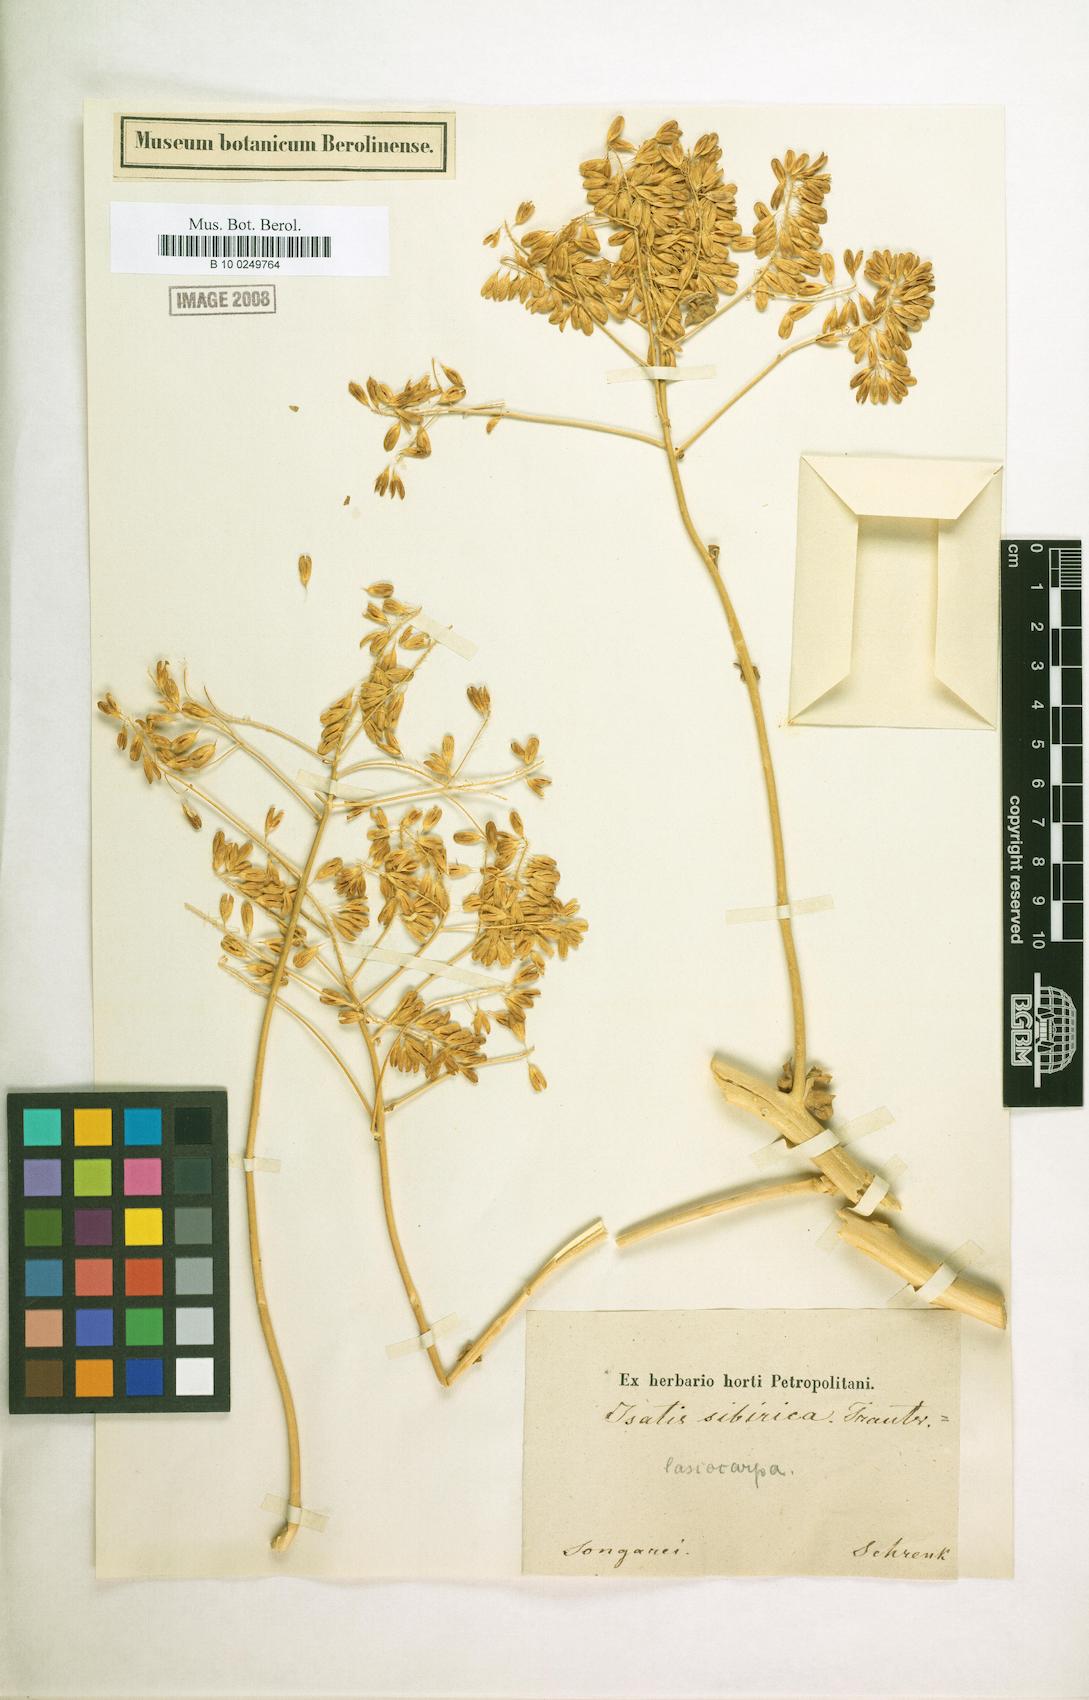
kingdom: Plantae
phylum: Tracheophyta
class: Magnoliopsida
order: Brassicales
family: Brassicaceae
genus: Isatis
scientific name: Isatis tinctoria
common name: Woad
